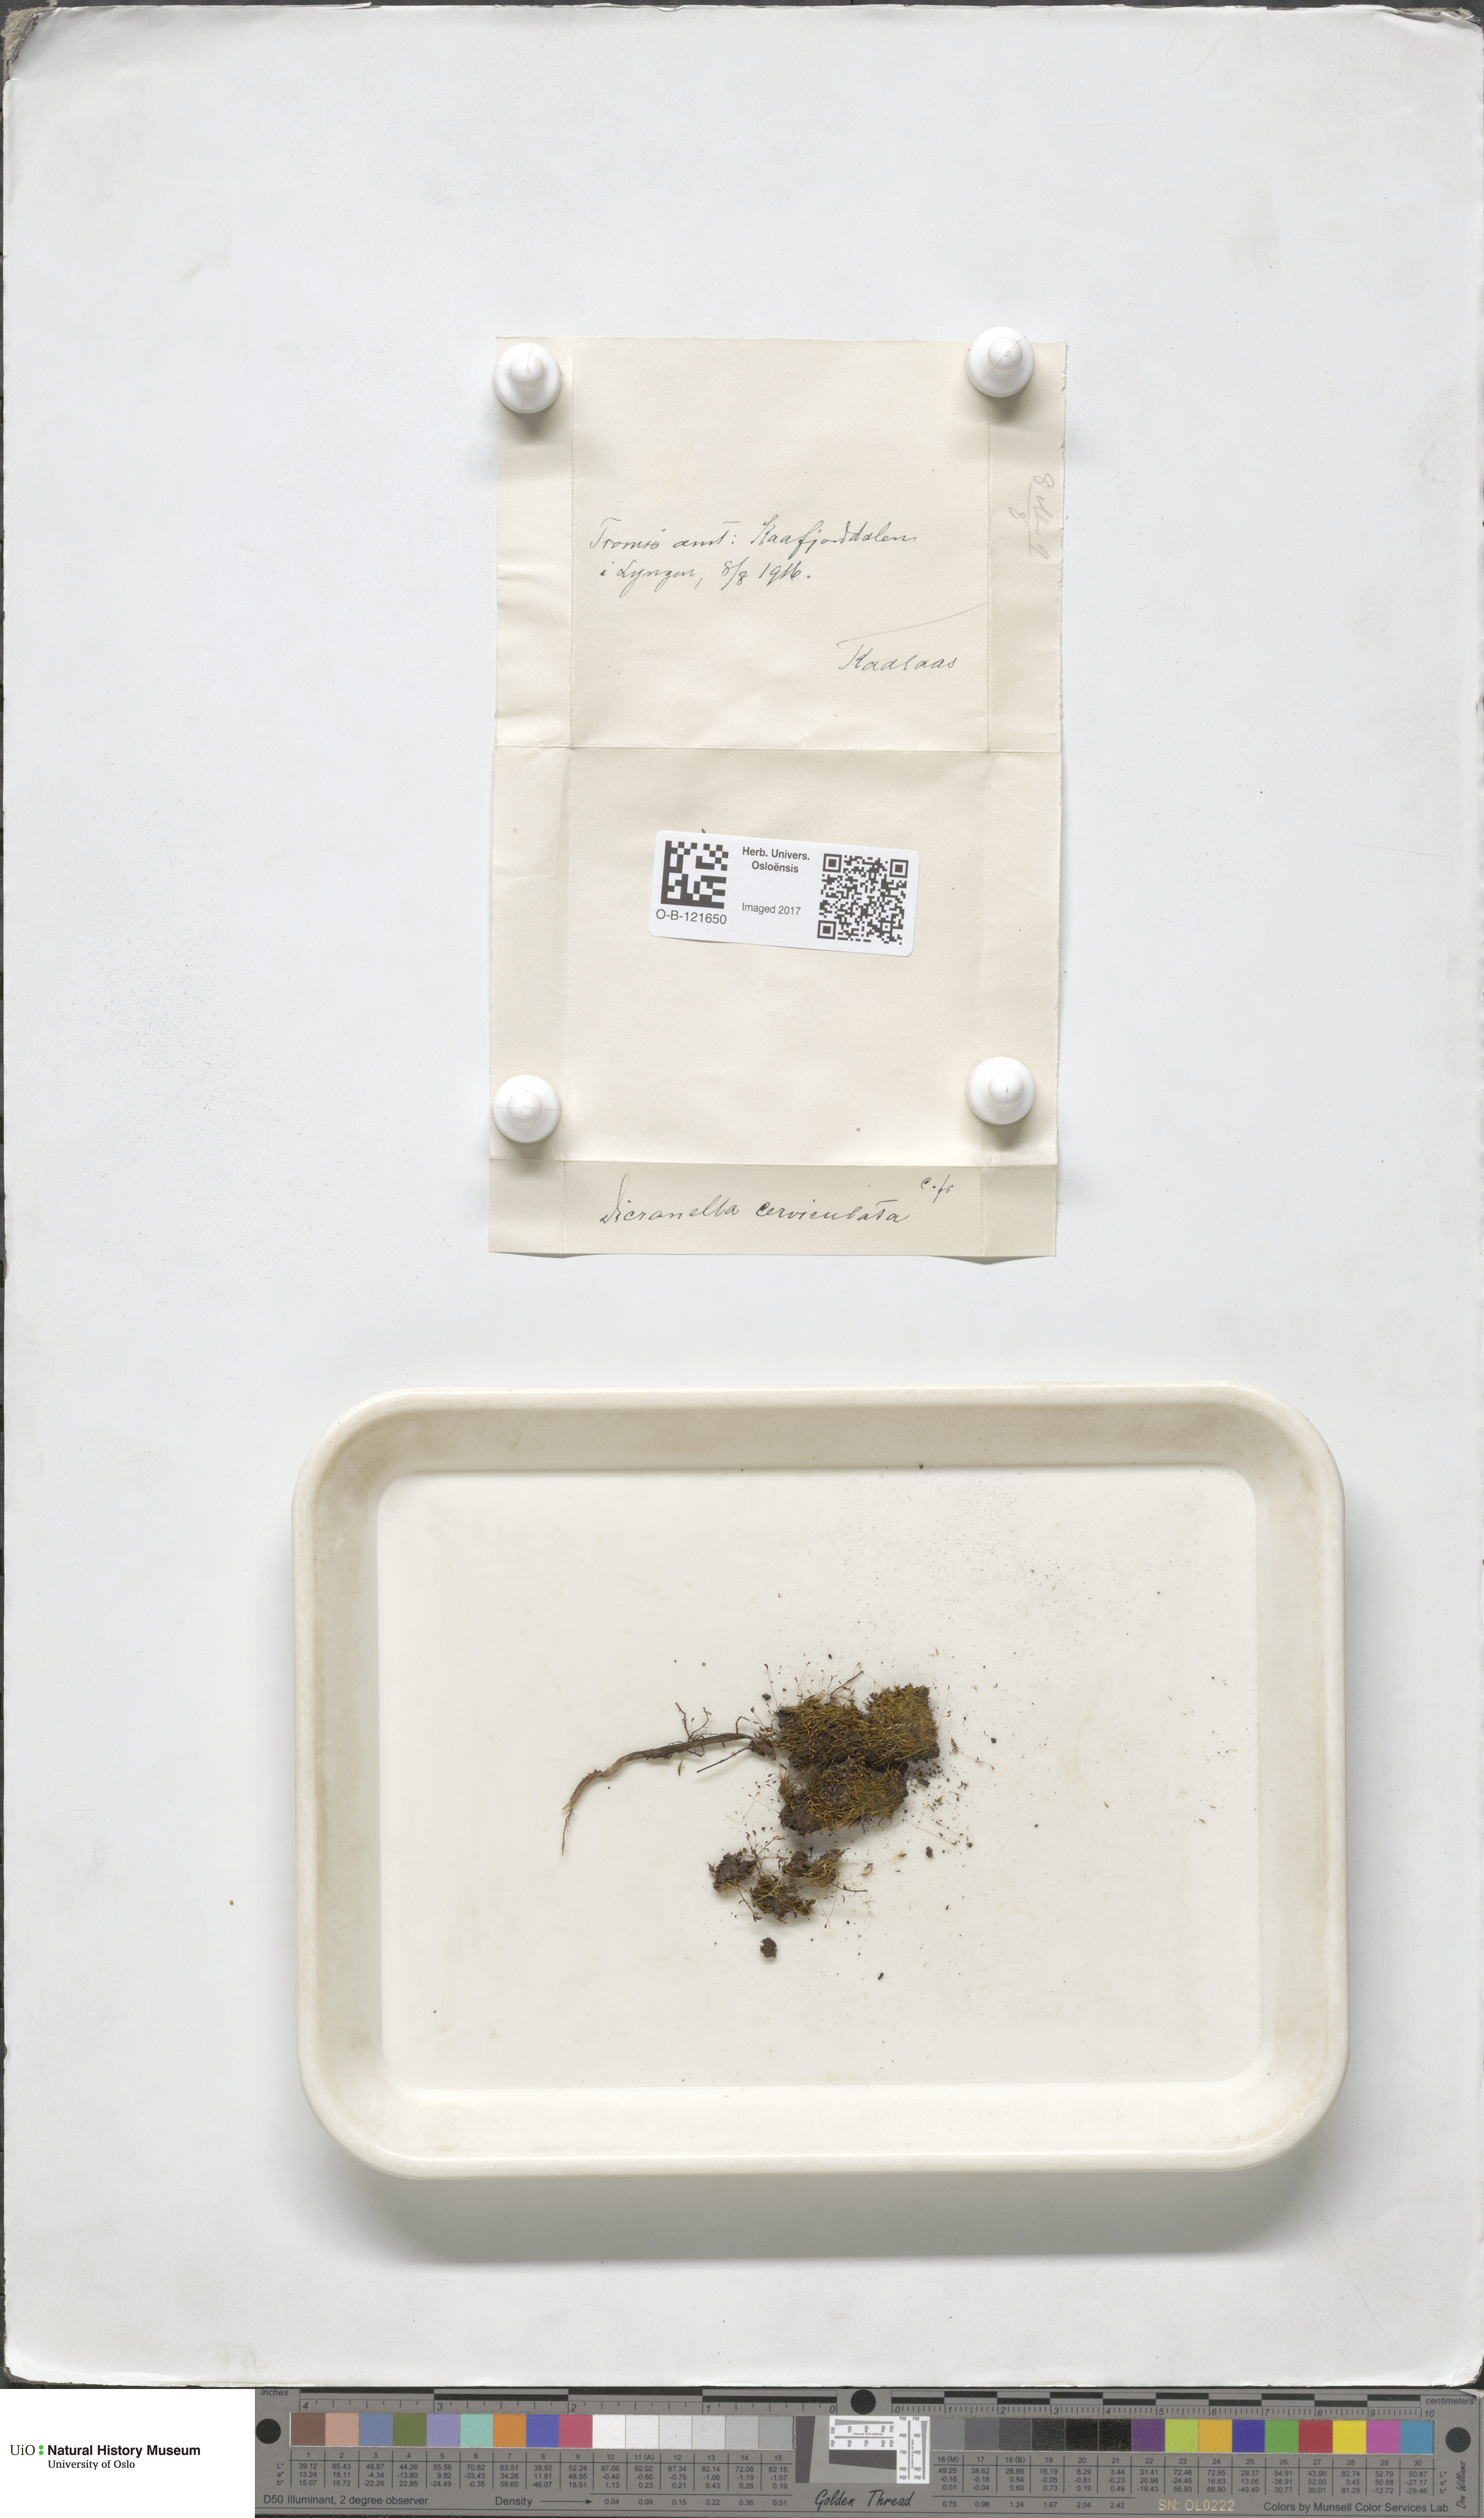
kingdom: Plantae
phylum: Bryophyta
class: Bryopsida
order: Dicranales
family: Dicranellaceae
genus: Dicranella
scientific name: Dicranella cerviculata
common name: Spur-necked forklet moss
